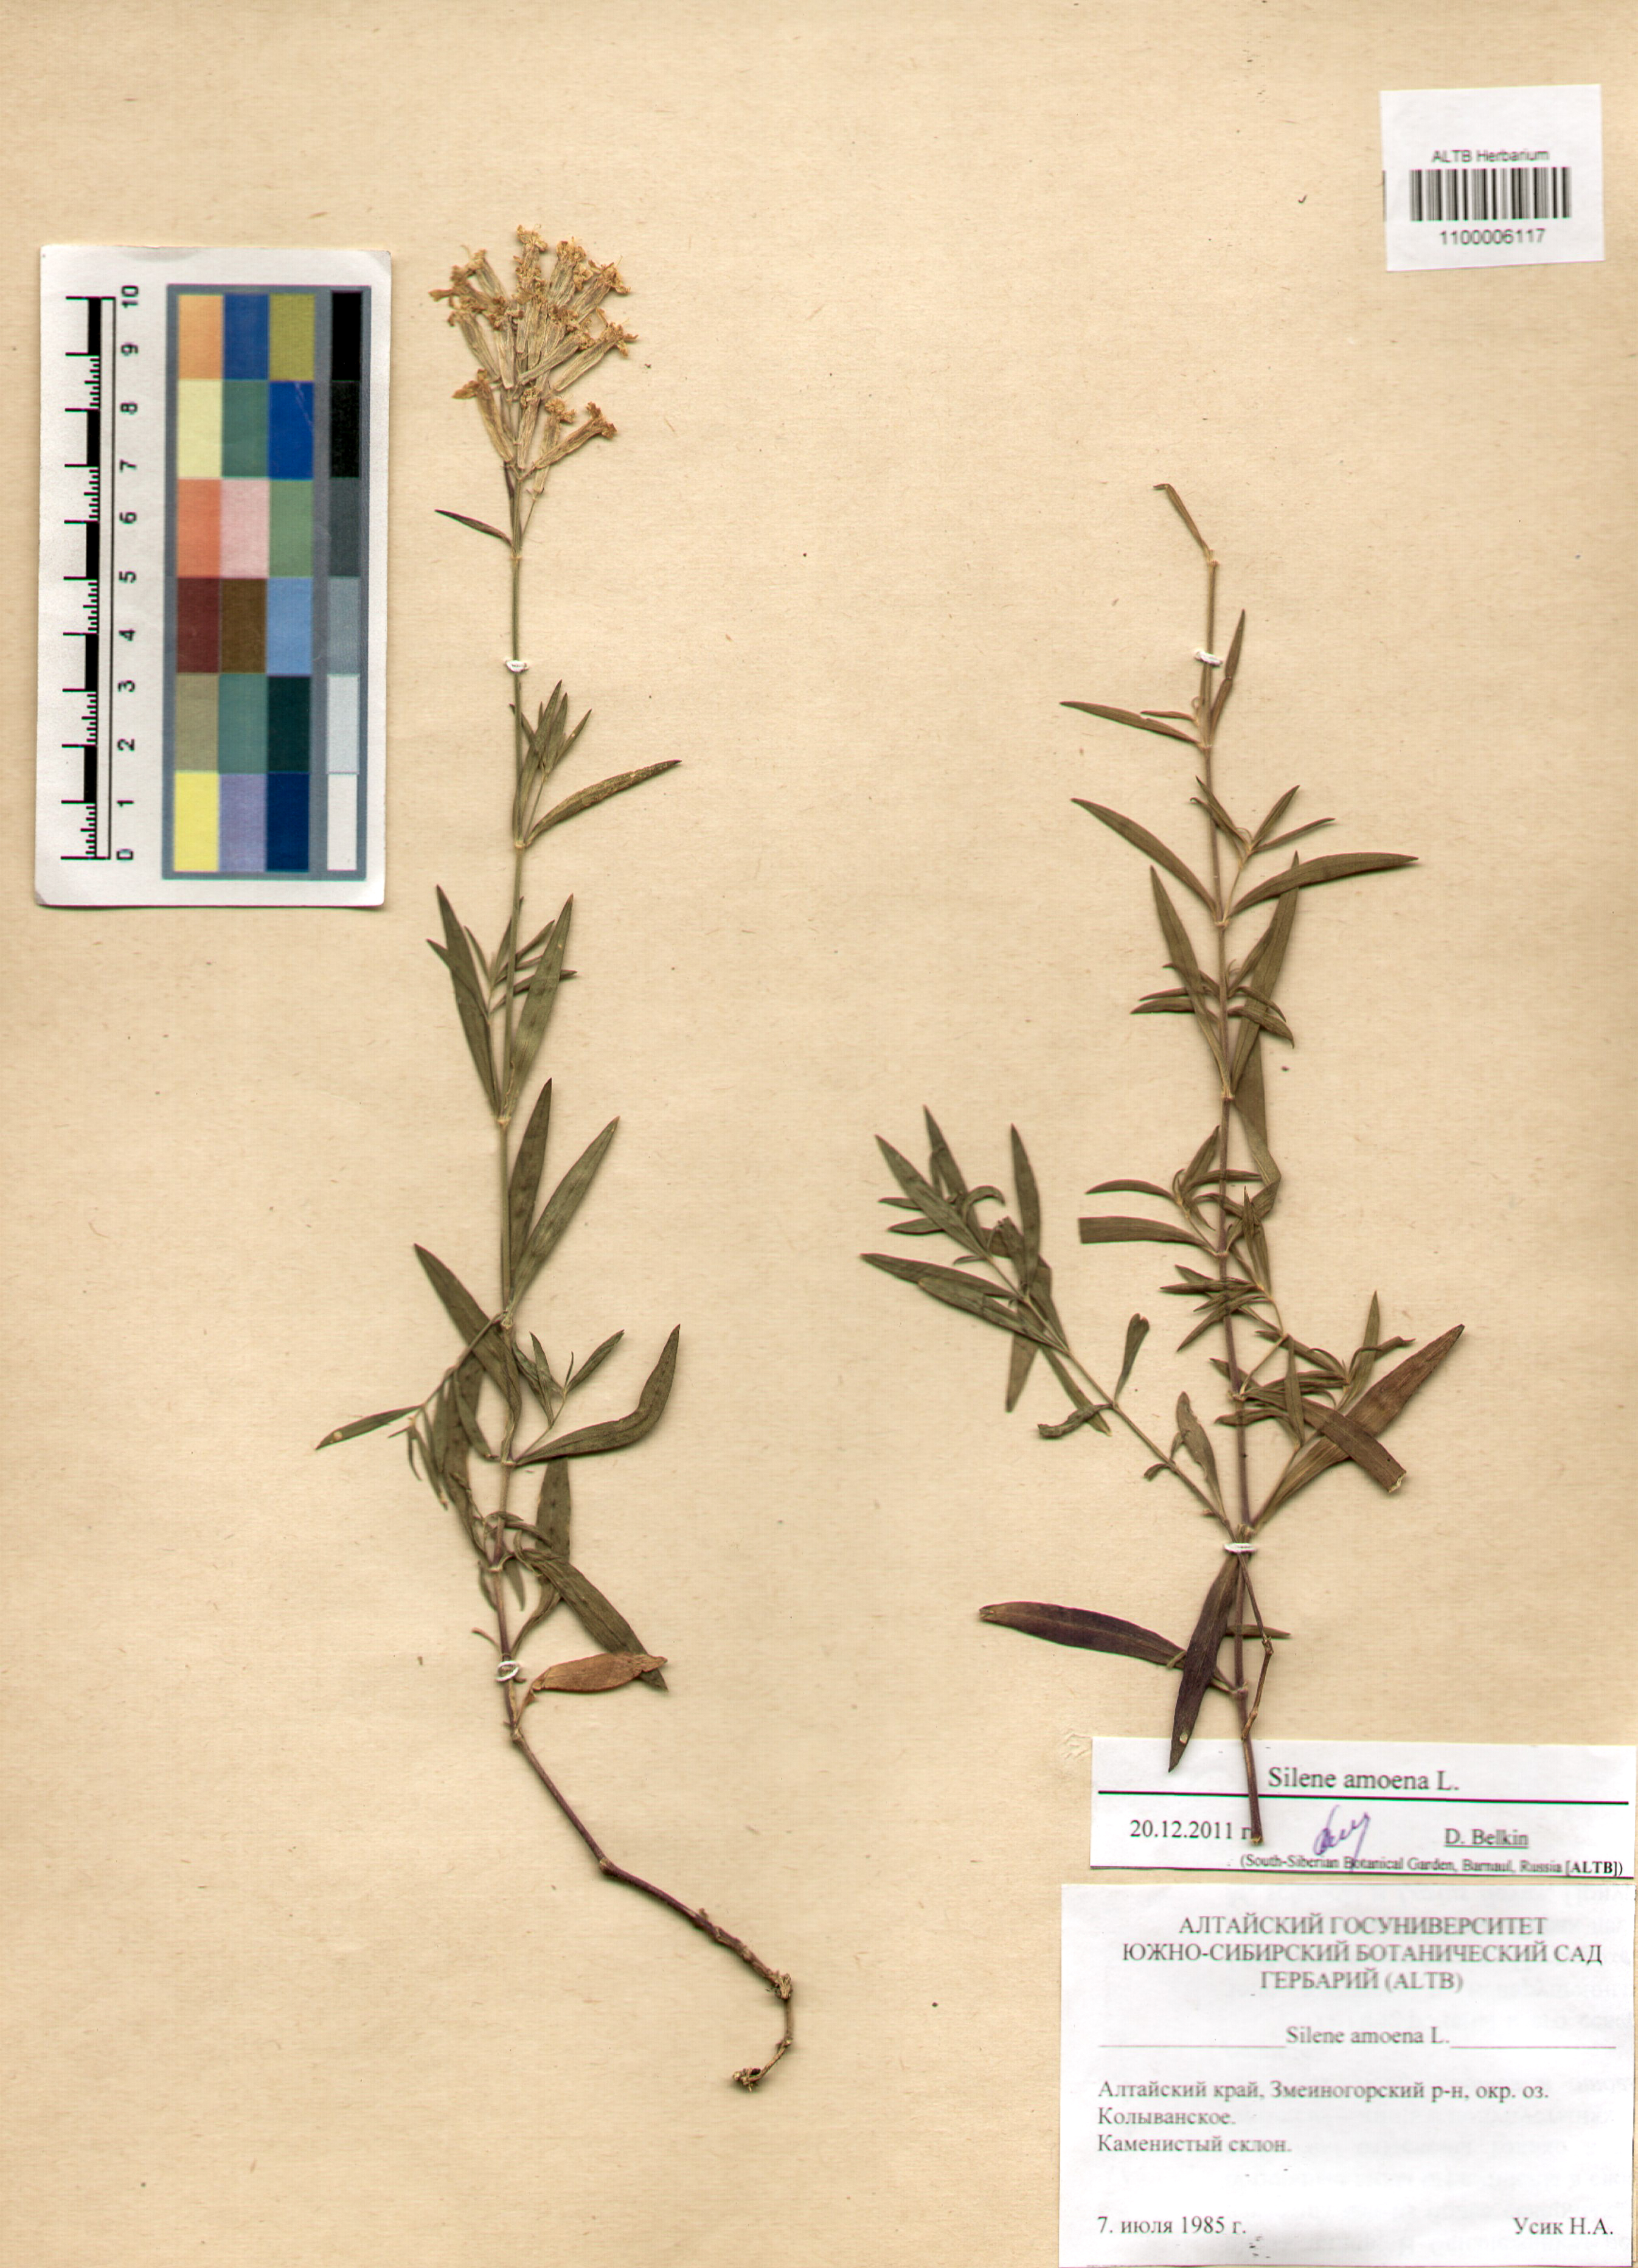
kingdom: Plantae
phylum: Tracheophyta
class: Magnoliopsida
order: Caryophyllales
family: Caryophyllaceae
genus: Silene
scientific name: Silene amoena
